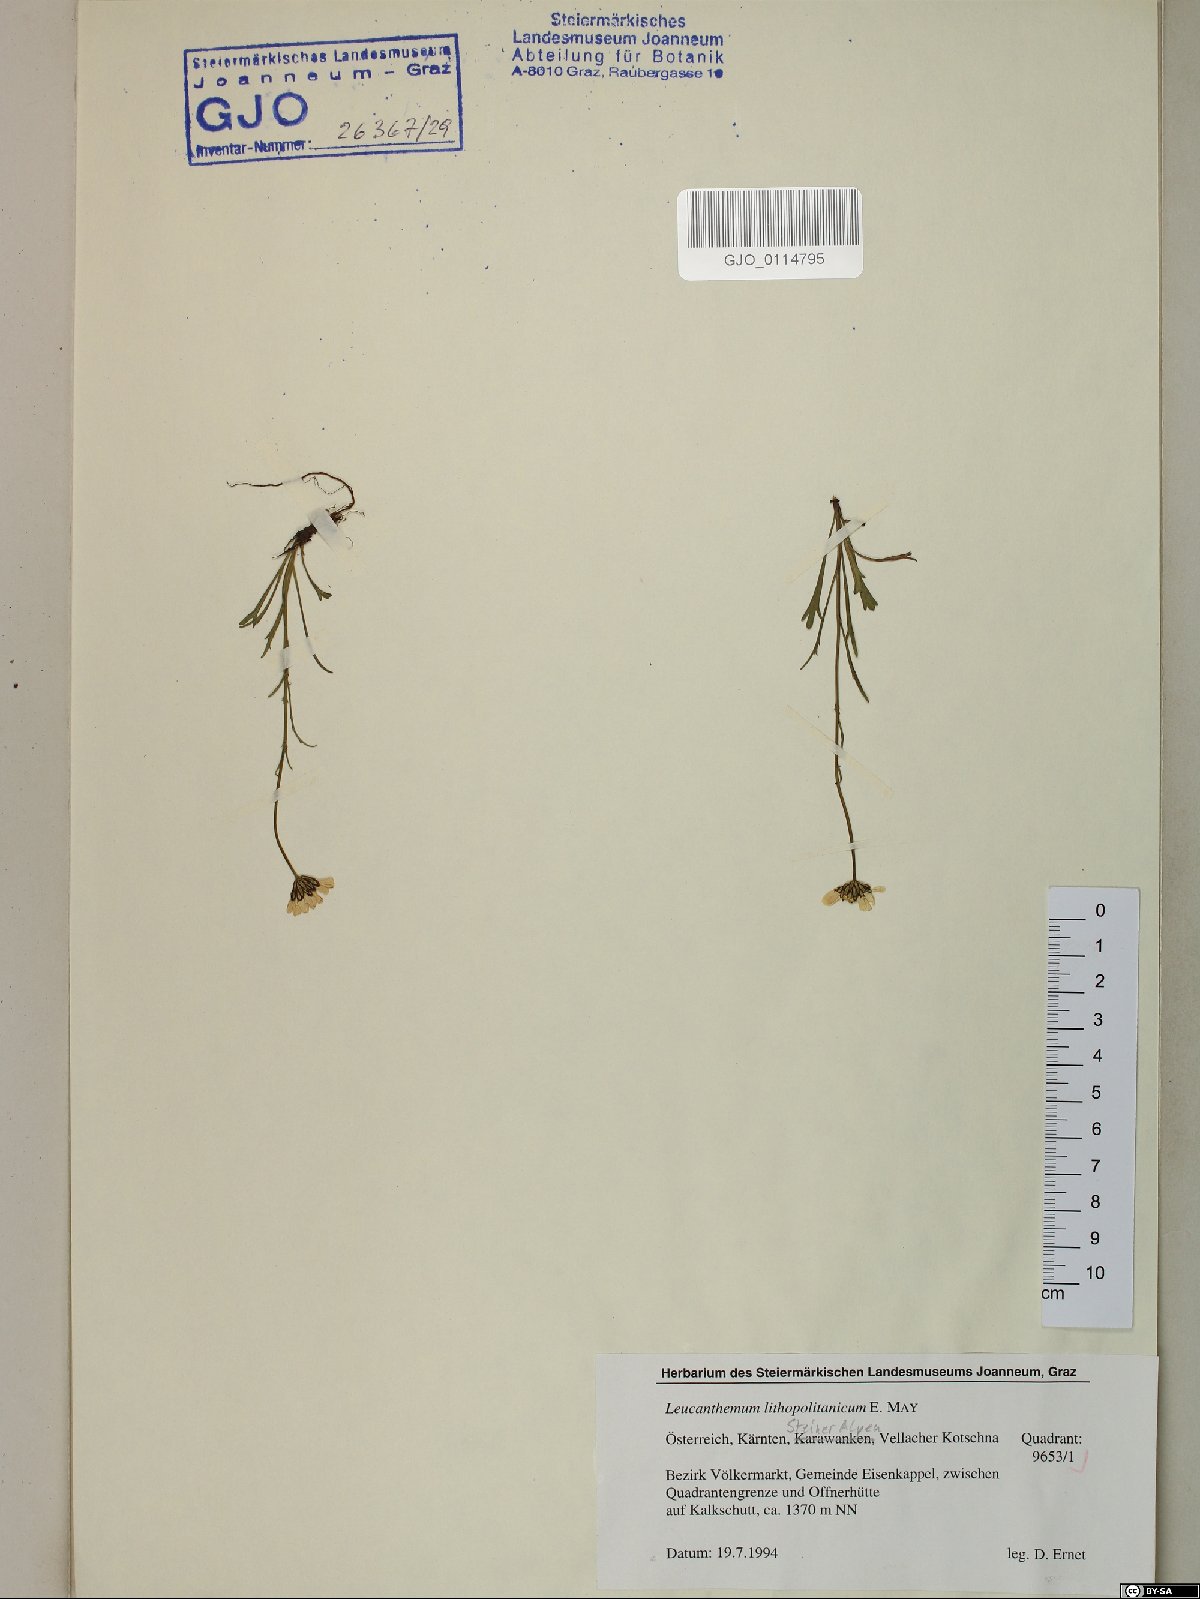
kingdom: Plantae
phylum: Tracheophyta
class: Magnoliopsida
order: Asterales
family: Asteraceae
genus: Leucanthemum
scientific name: Leucanthemum lithopolitanicum
